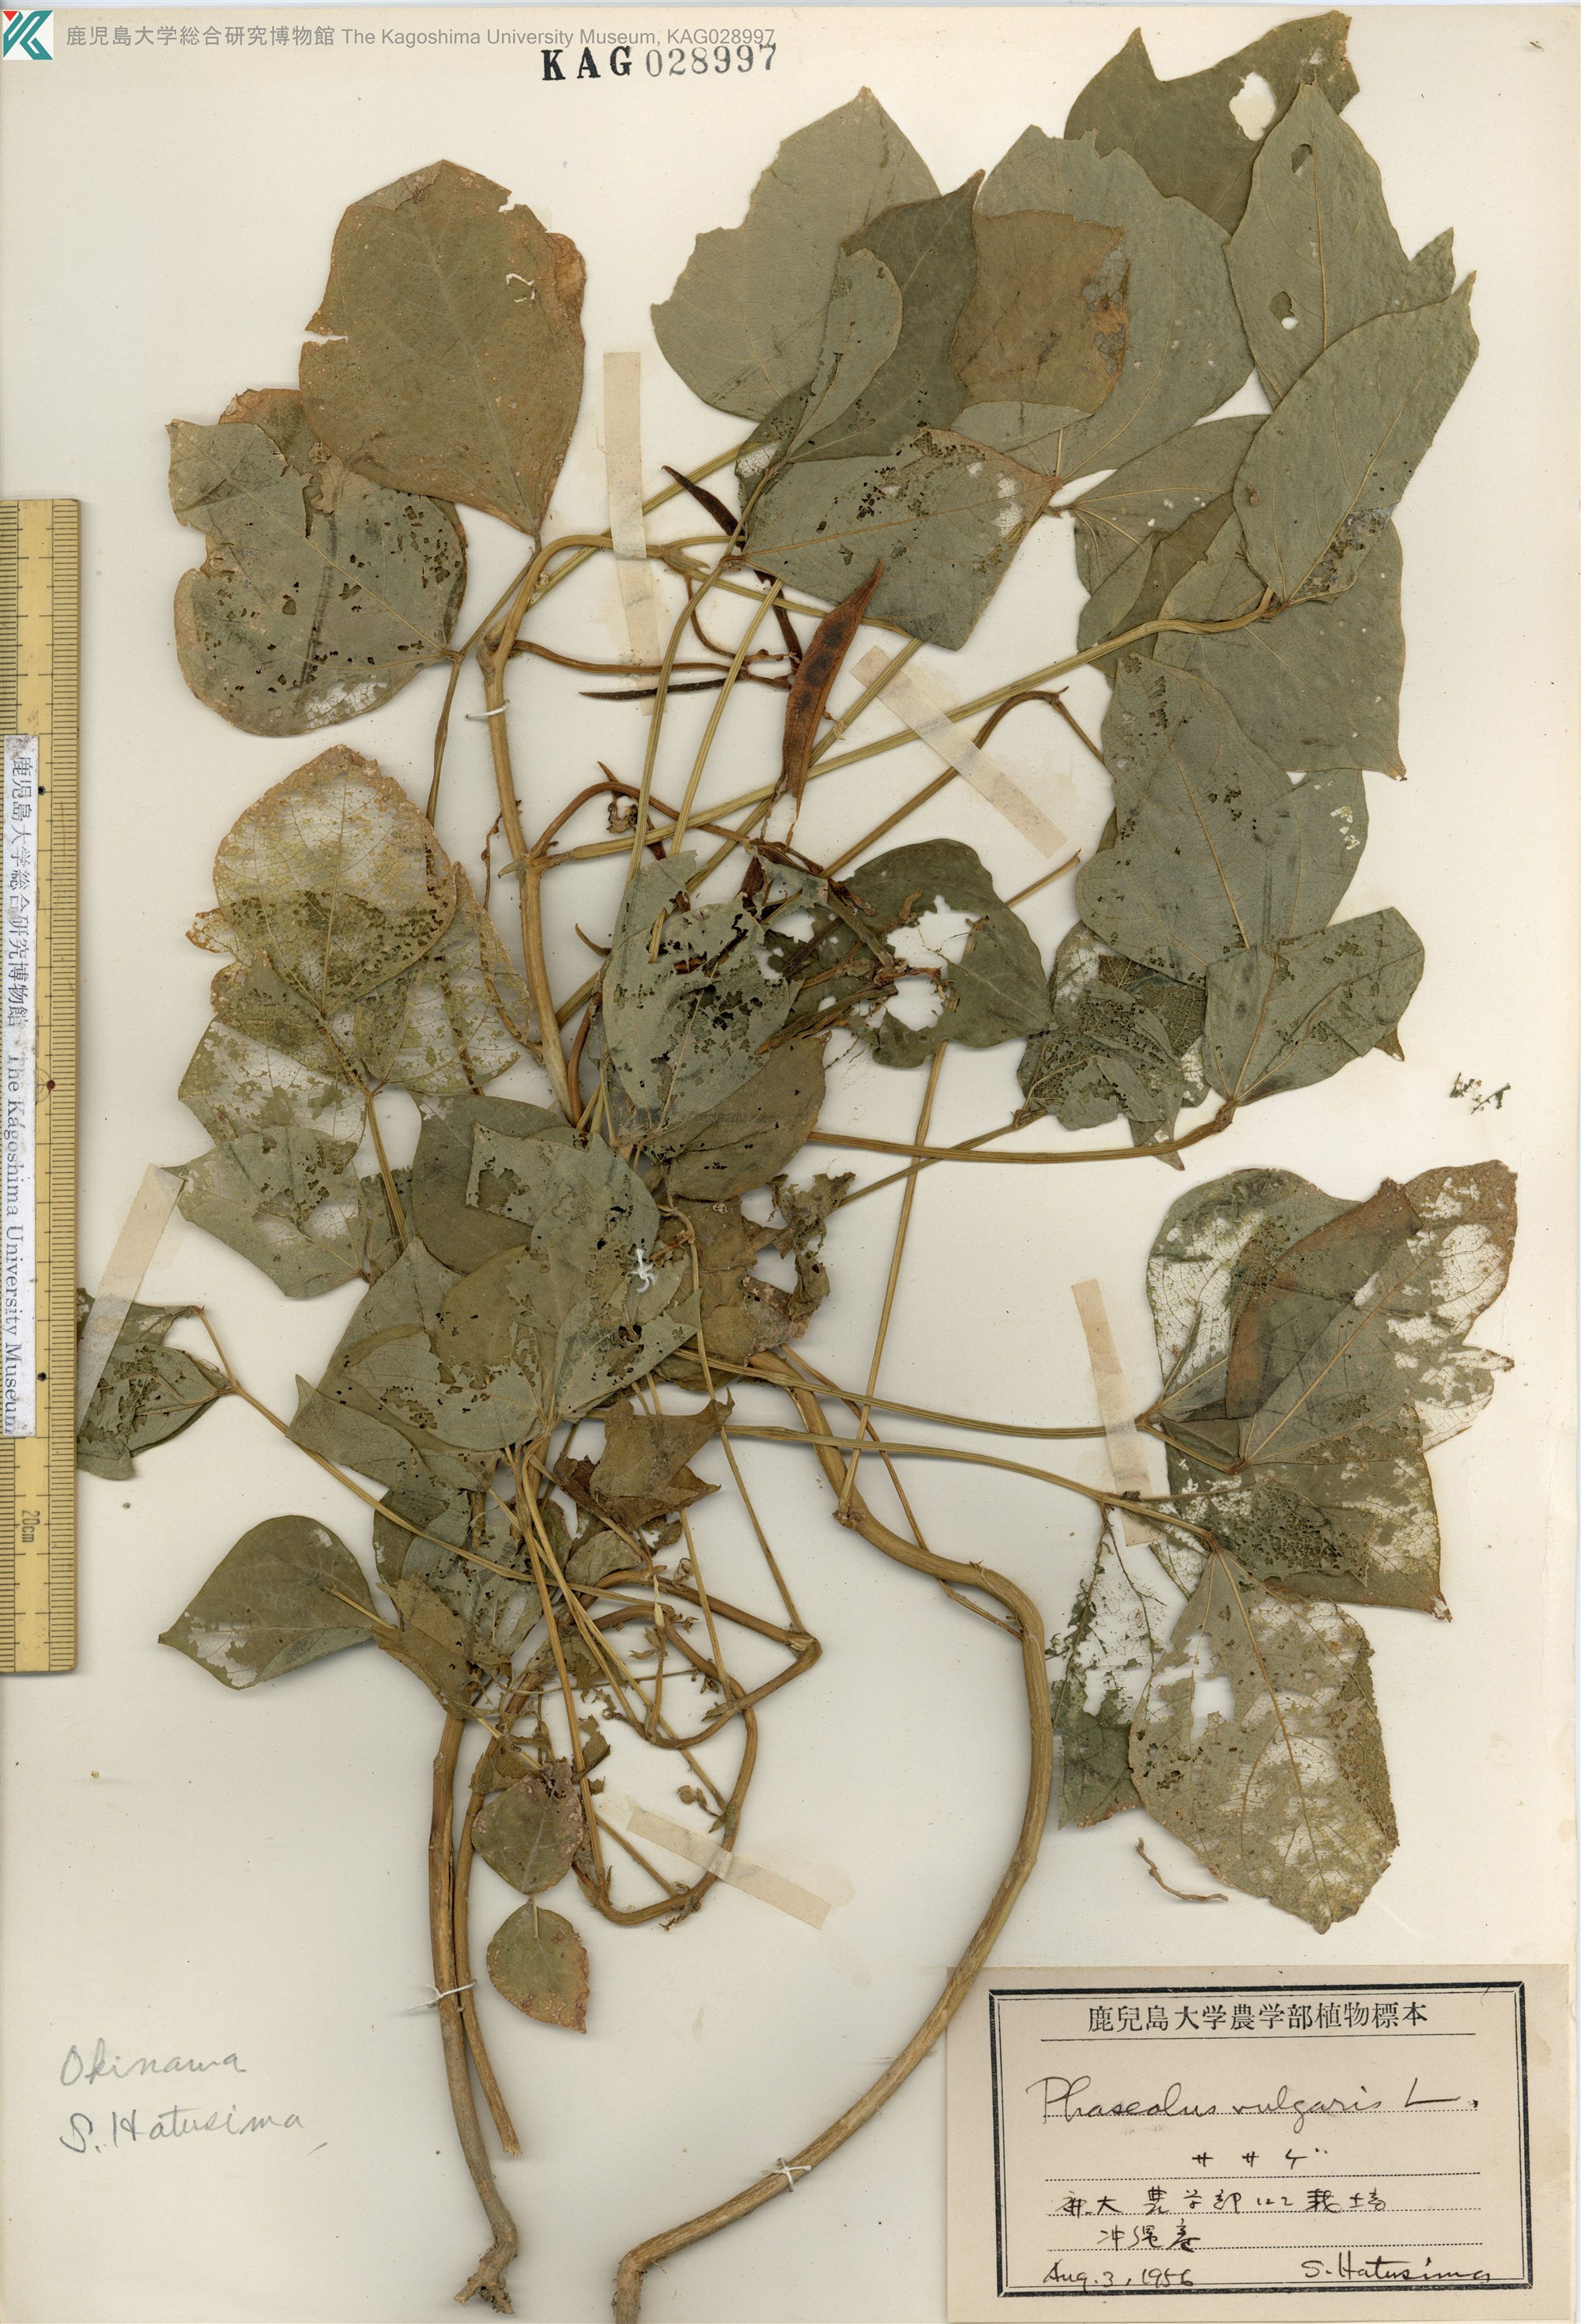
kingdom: Plantae
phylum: Tracheophyta
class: Magnoliopsida
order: Fabales
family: Fabaceae
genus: Phaseolus
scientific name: Phaseolus vulgaris
